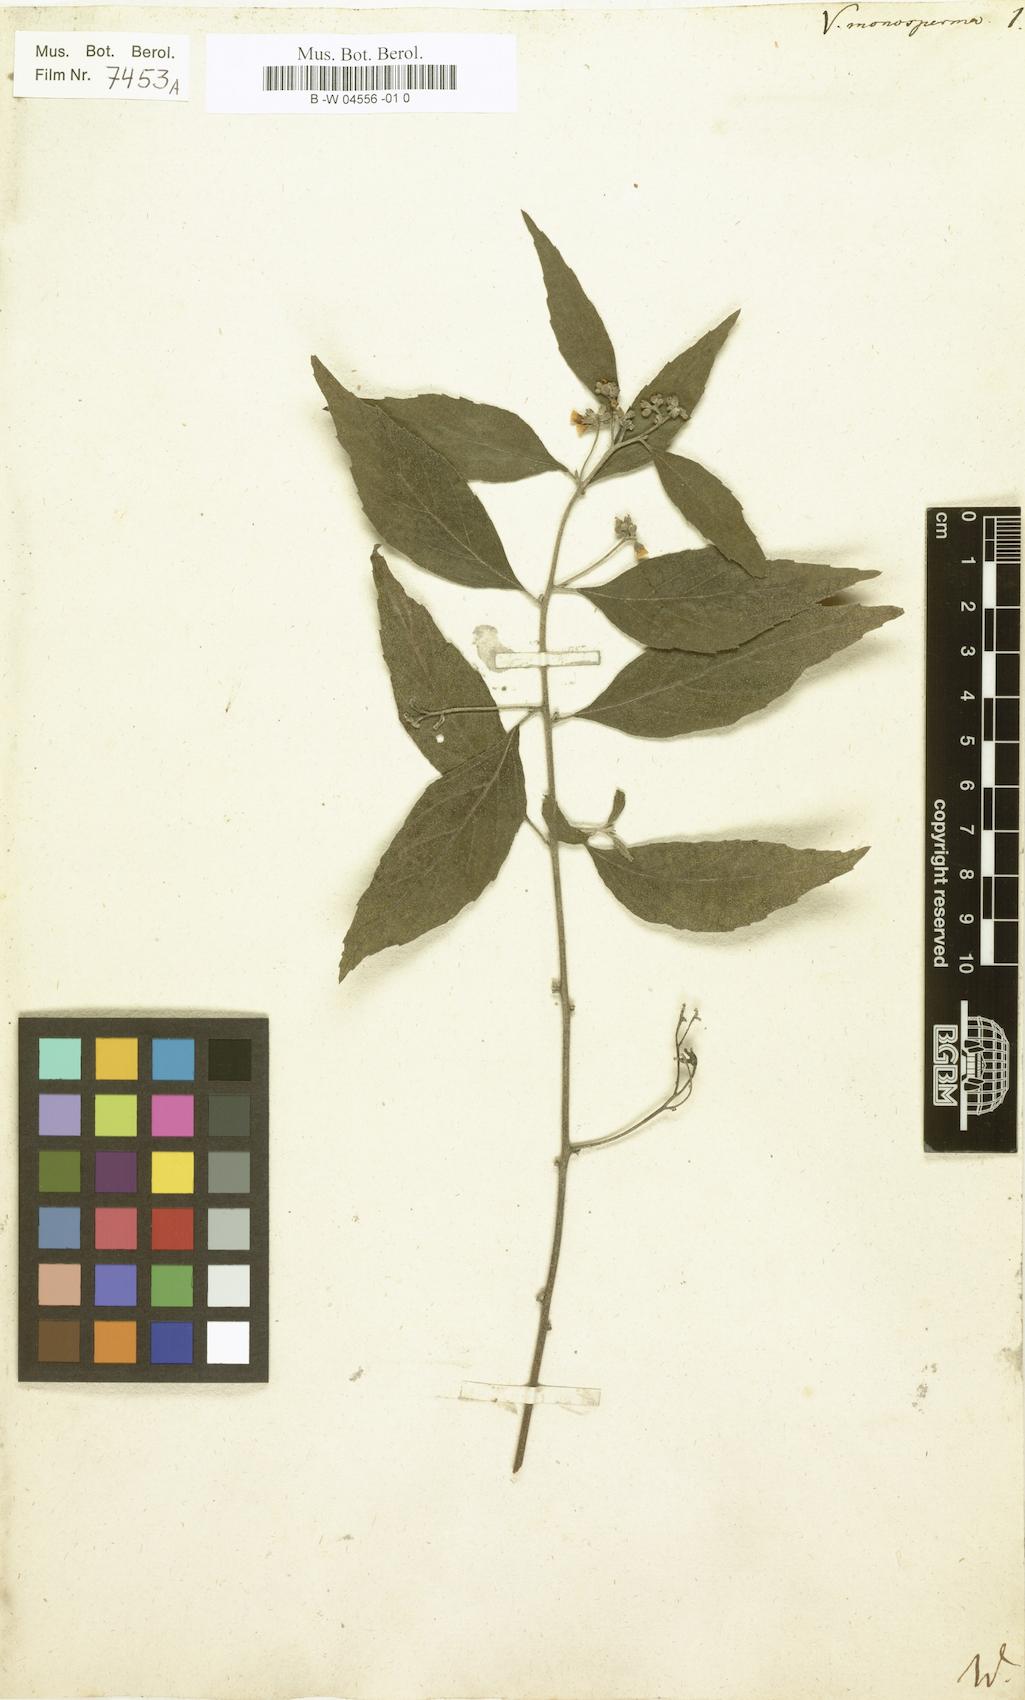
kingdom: Plantae
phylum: Tracheophyta
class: Magnoliopsida
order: Boraginales
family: Cordiaceae
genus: Varronia
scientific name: Varronia polycephala
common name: Black-sage
